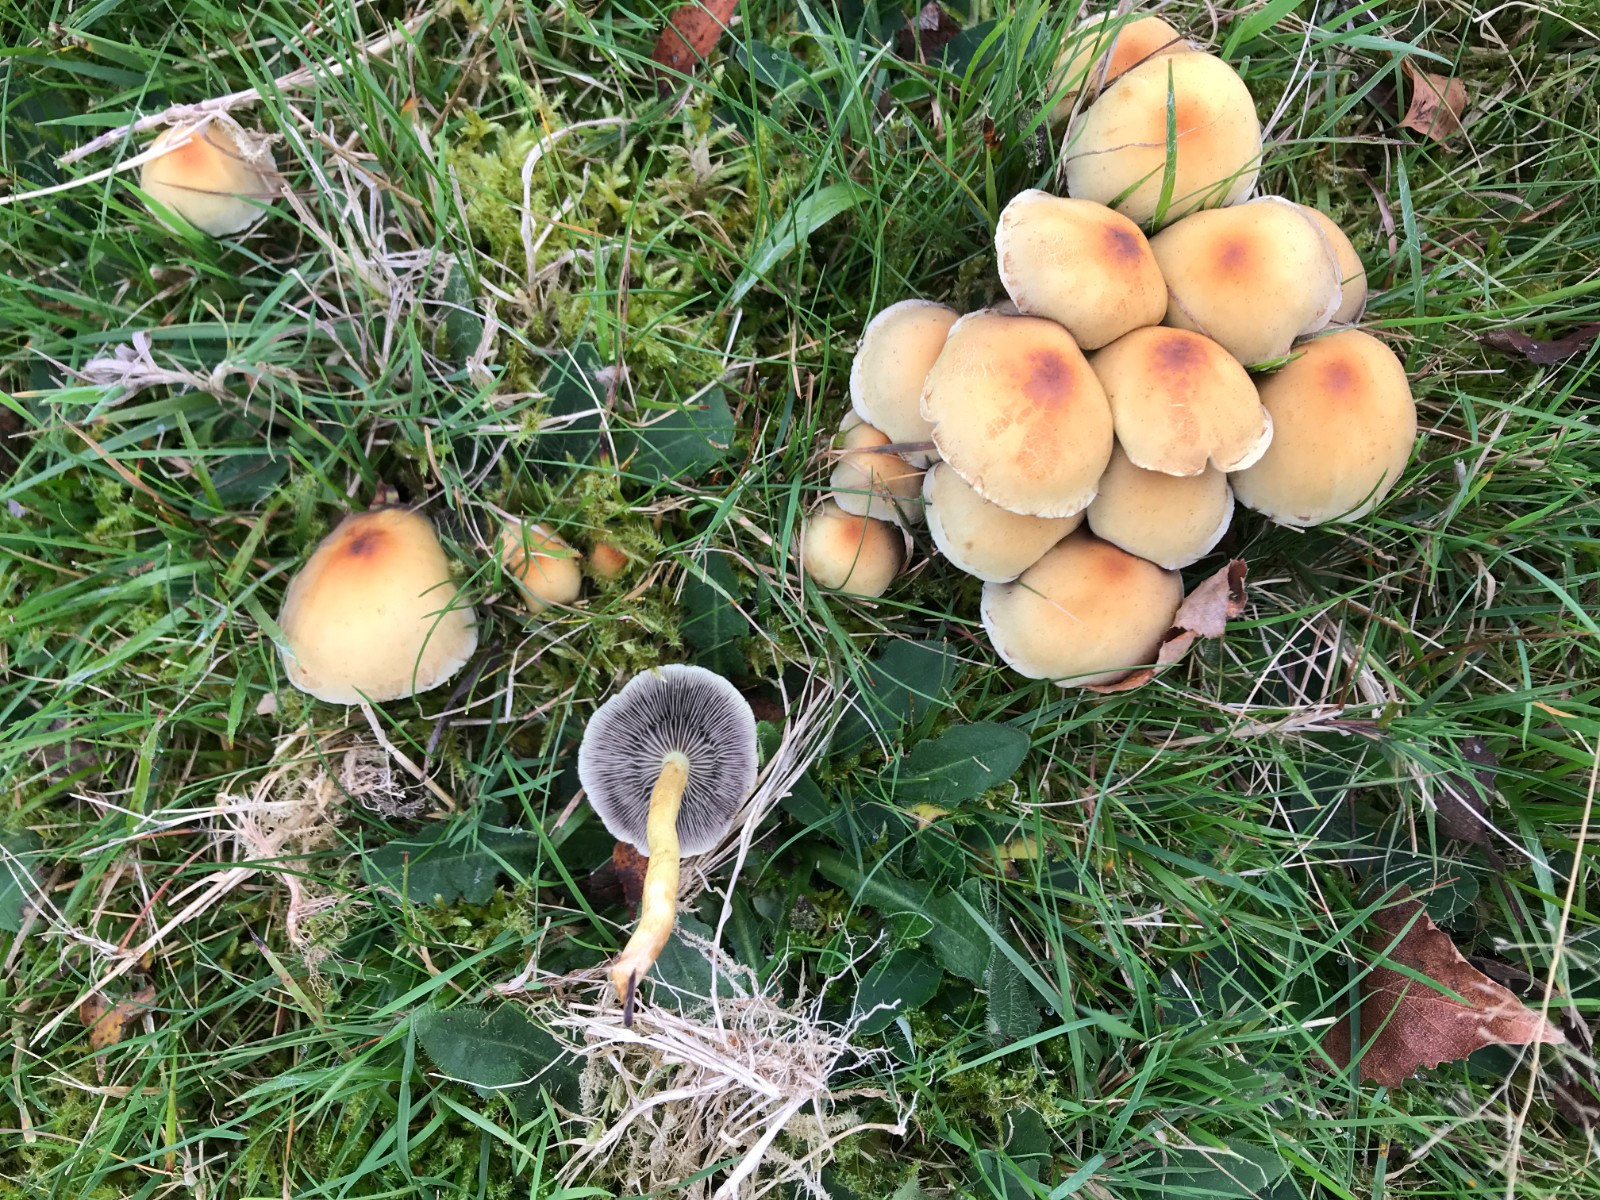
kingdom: Fungi
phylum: Basidiomycota
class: Agaricomycetes
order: Agaricales
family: Strophariaceae
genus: Hypholoma
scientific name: Hypholoma fasciculare
